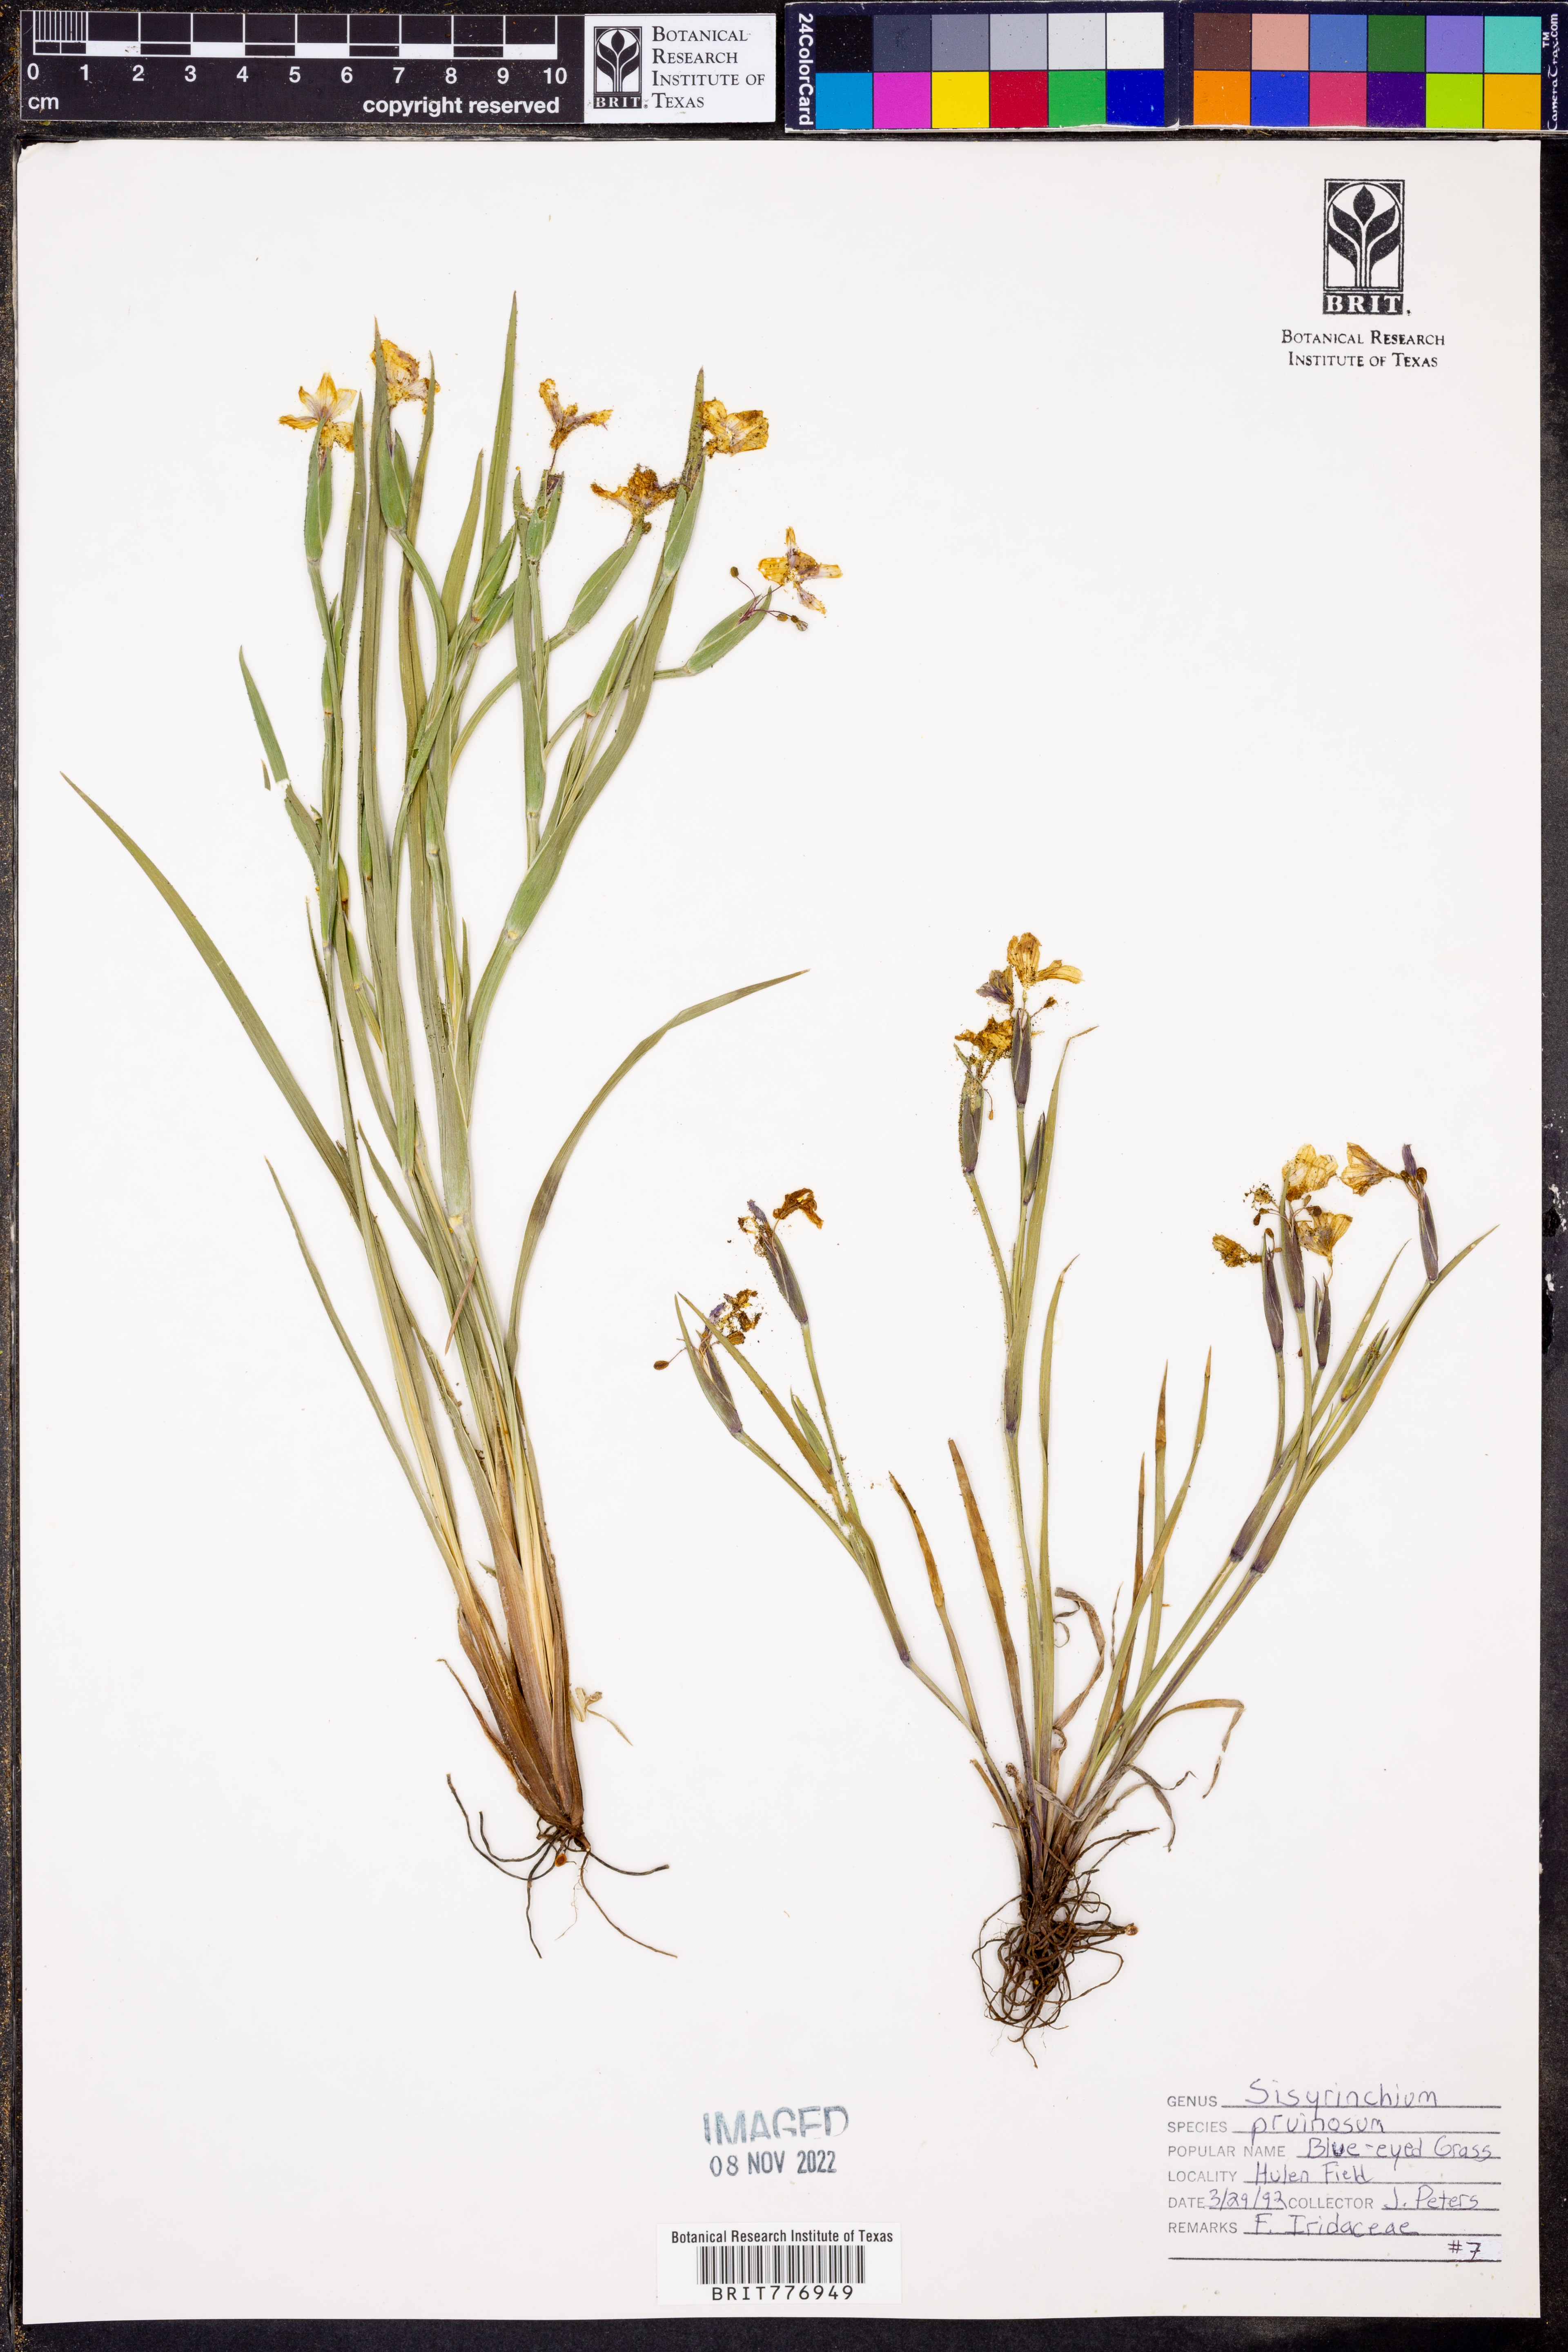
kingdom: Plantae
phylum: Tracheophyta
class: Liliopsida
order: Asparagales
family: Iridaceae
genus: Sisyrinchium
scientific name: Sisyrinchium pruinosum
